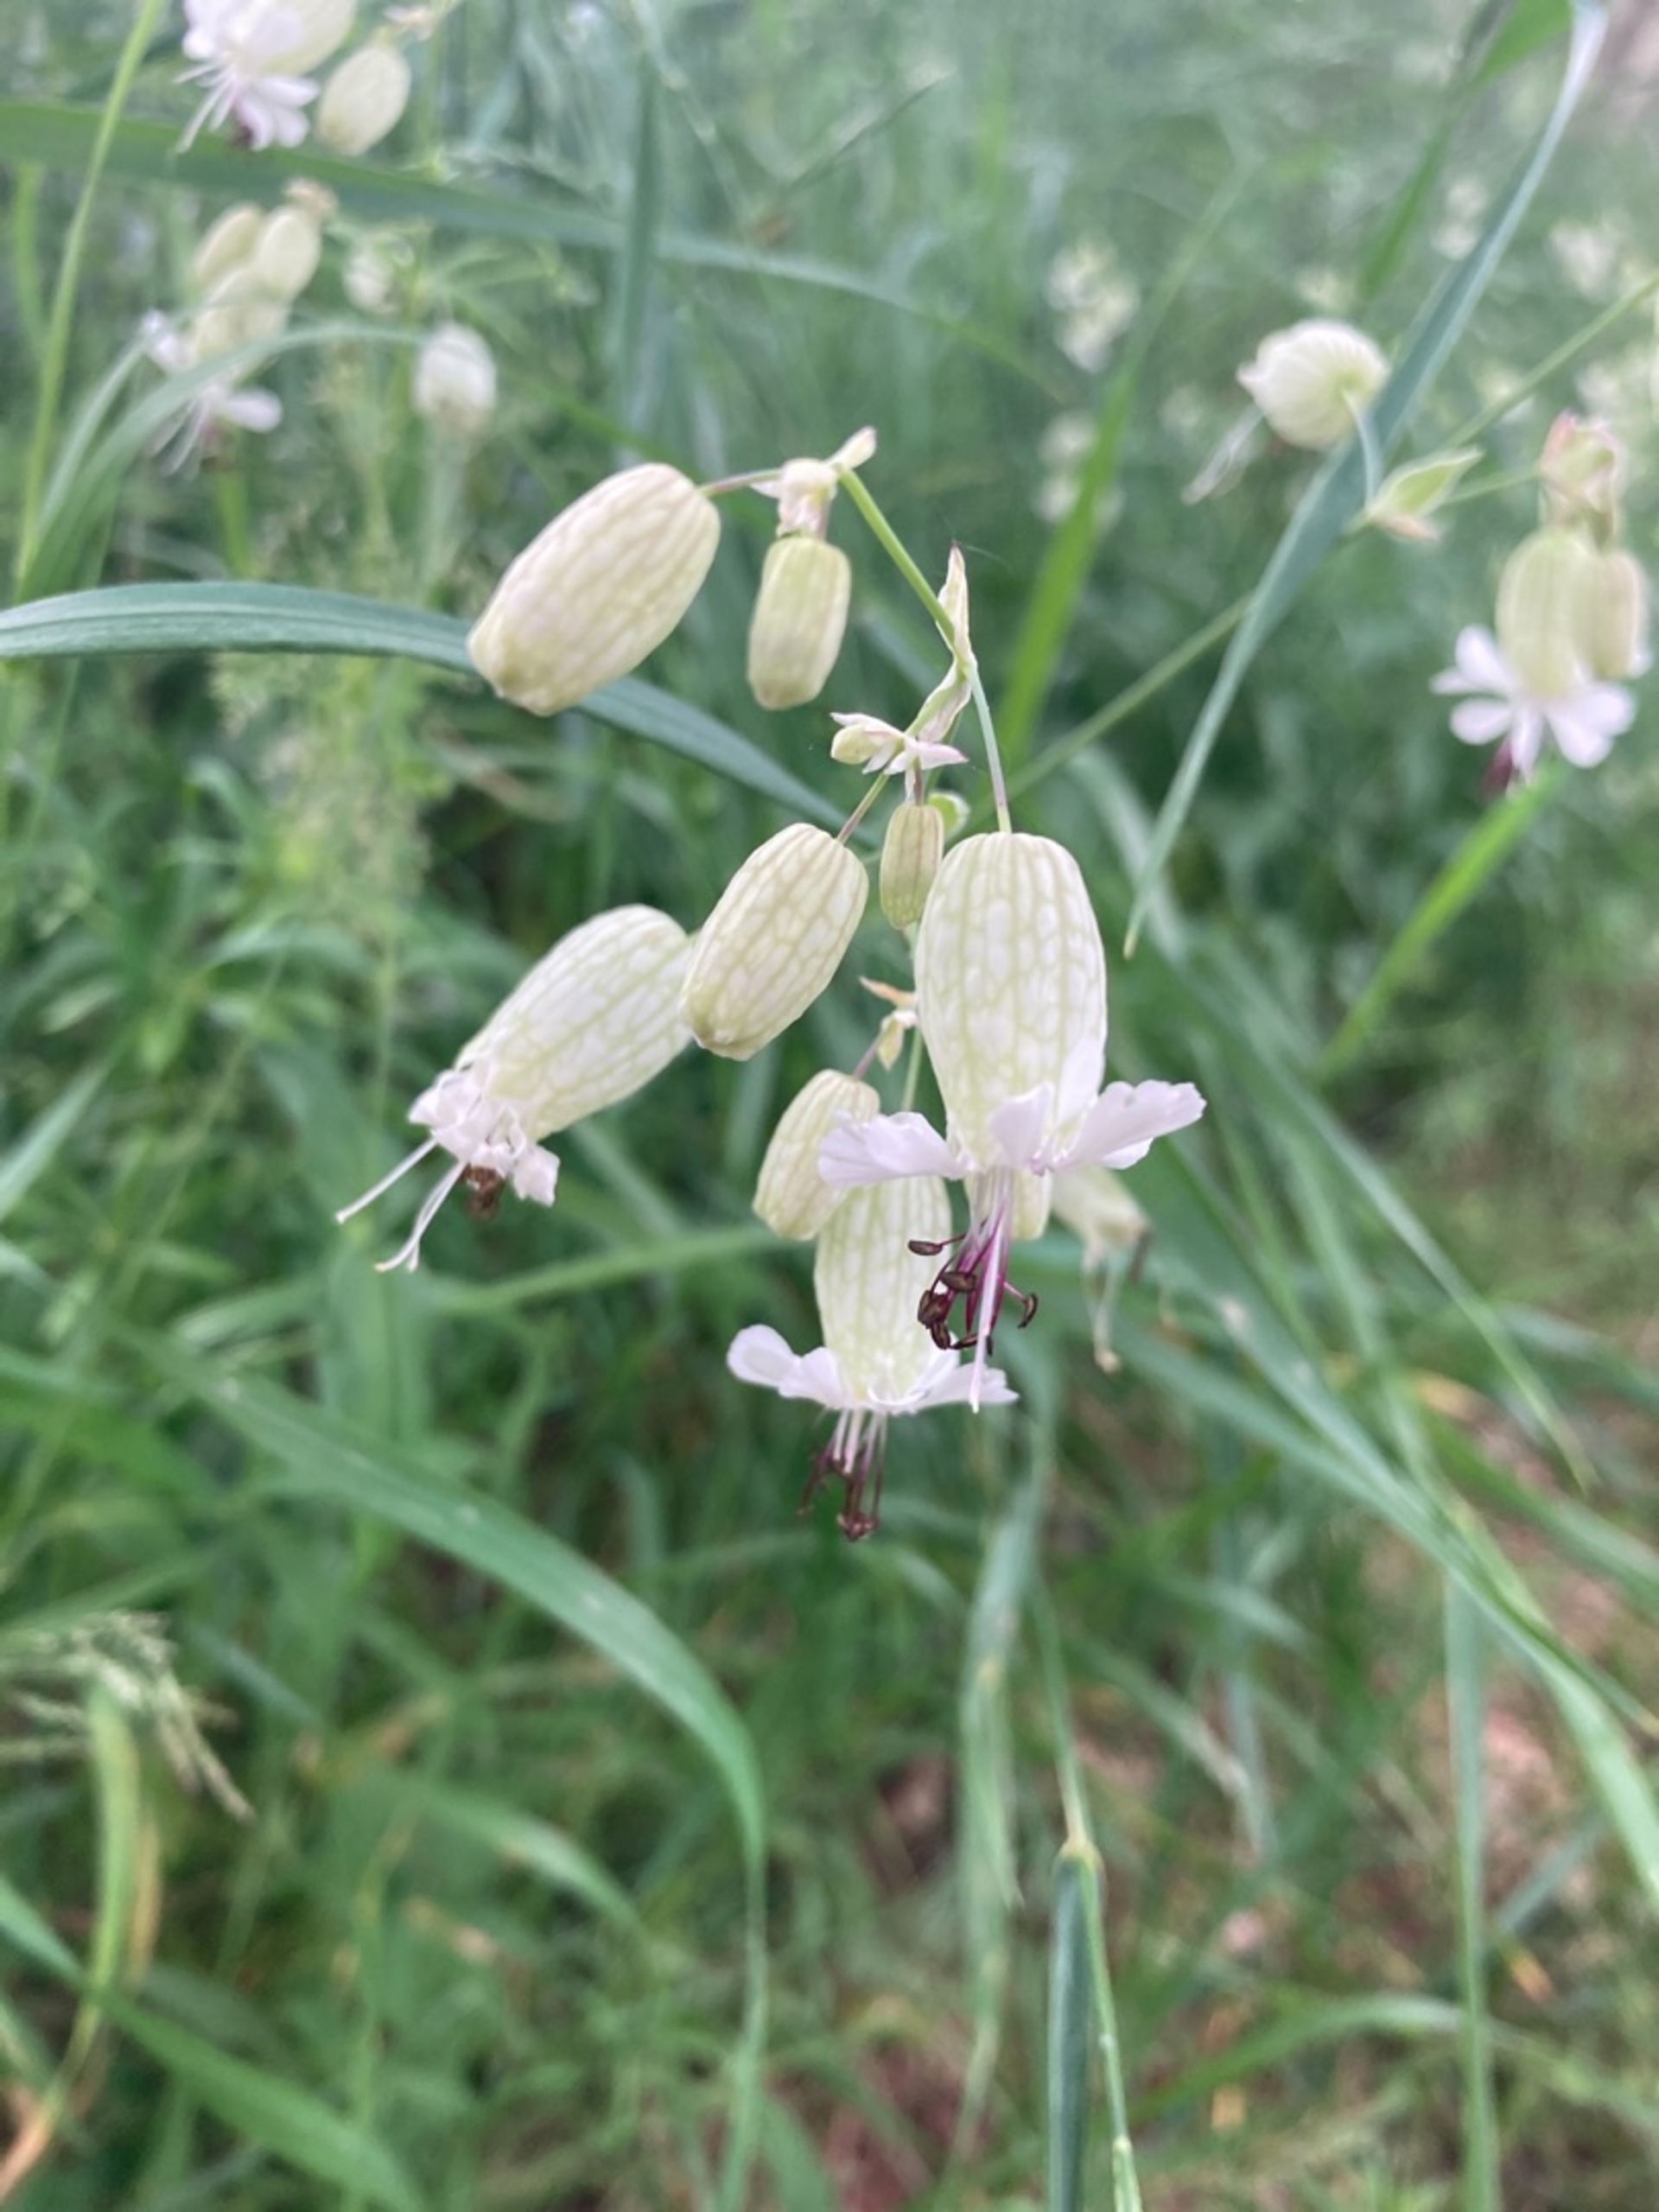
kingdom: Plantae
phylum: Tracheophyta
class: Magnoliopsida
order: Caryophyllales
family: Caryophyllaceae
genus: Silene
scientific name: Silene vulgaris
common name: Blæresmælde
